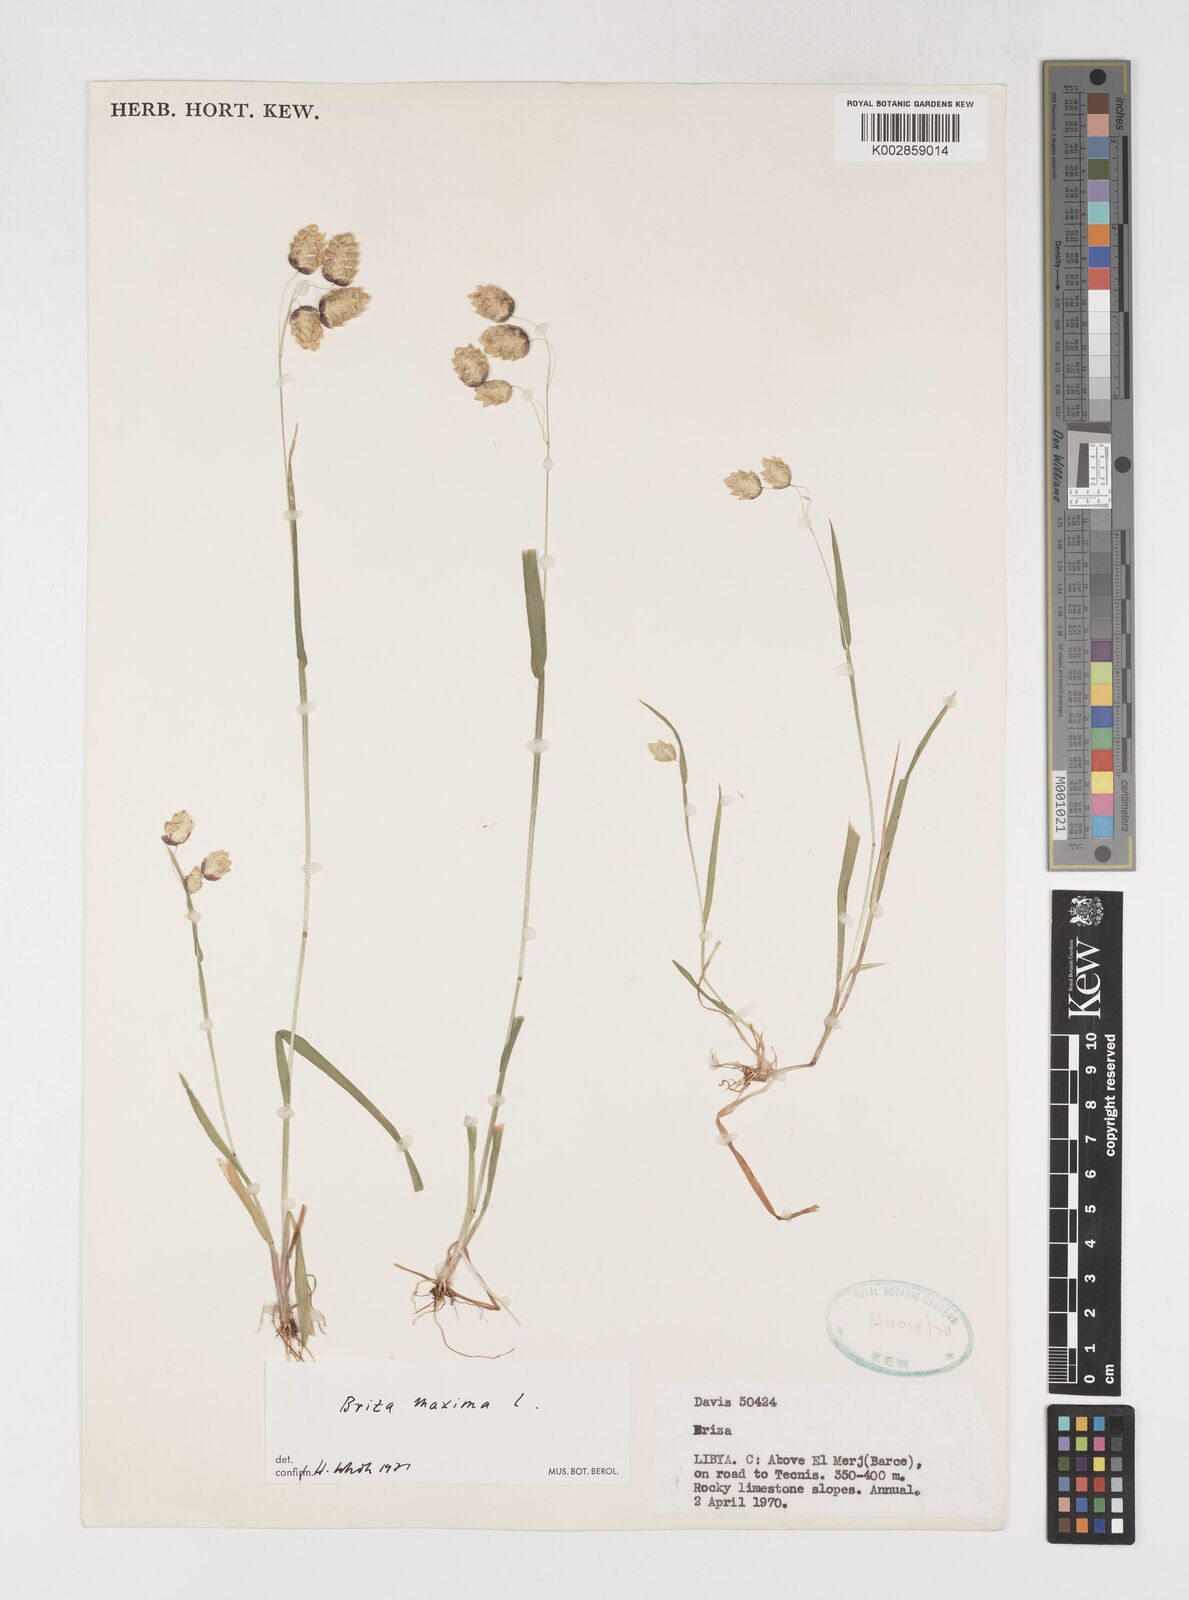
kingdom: Plantae
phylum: Tracheophyta
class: Liliopsida
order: Poales
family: Poaceae
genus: Briza
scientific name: Briza maxima
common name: Big quakinggrass
